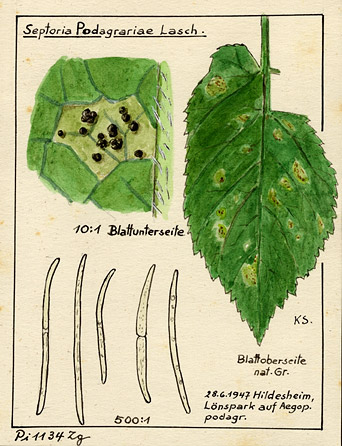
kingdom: Fungi
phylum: Ascomycota
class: Dothideomycetes
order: Mycosphaerellales
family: Mycosphaerellaceae
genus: Mycosphaerella
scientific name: Mycosphaerella podagrariae
